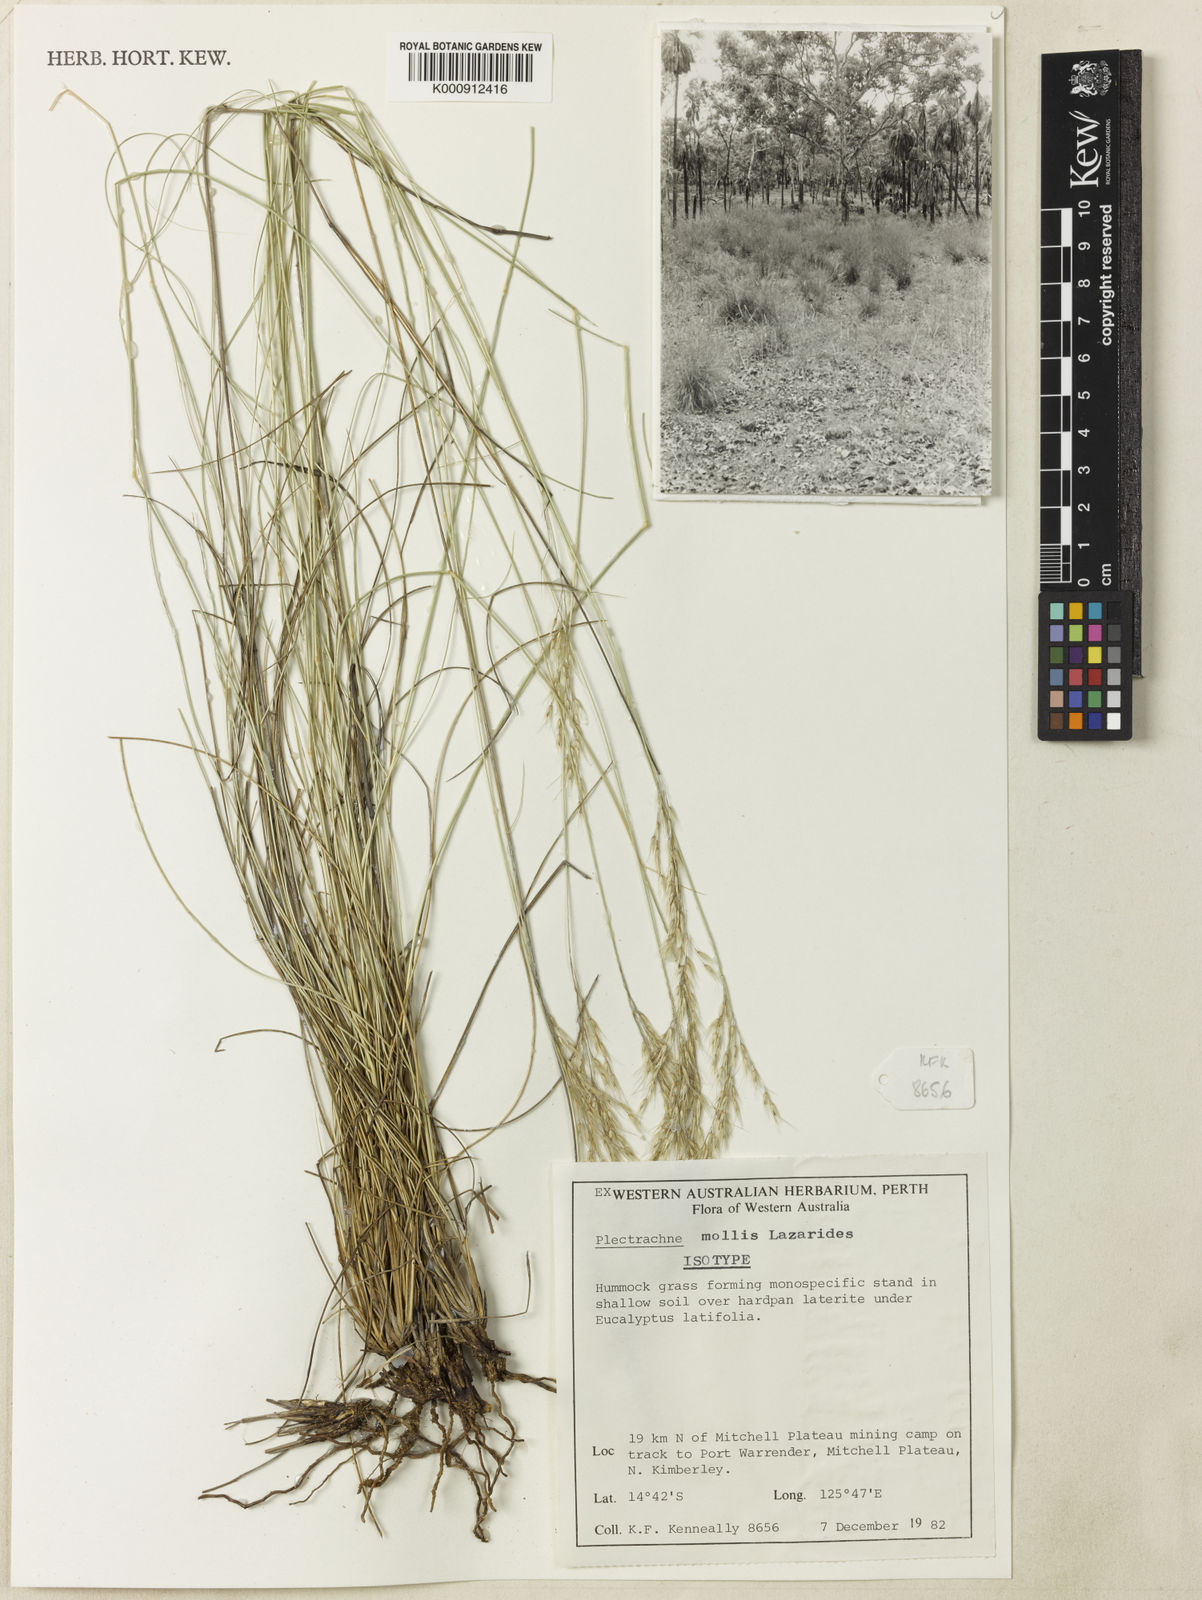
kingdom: Plantae
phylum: Tracheophyta
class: Liliopsida
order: Poales
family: Poaceae
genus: Triodia
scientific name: Triodia claytonii
